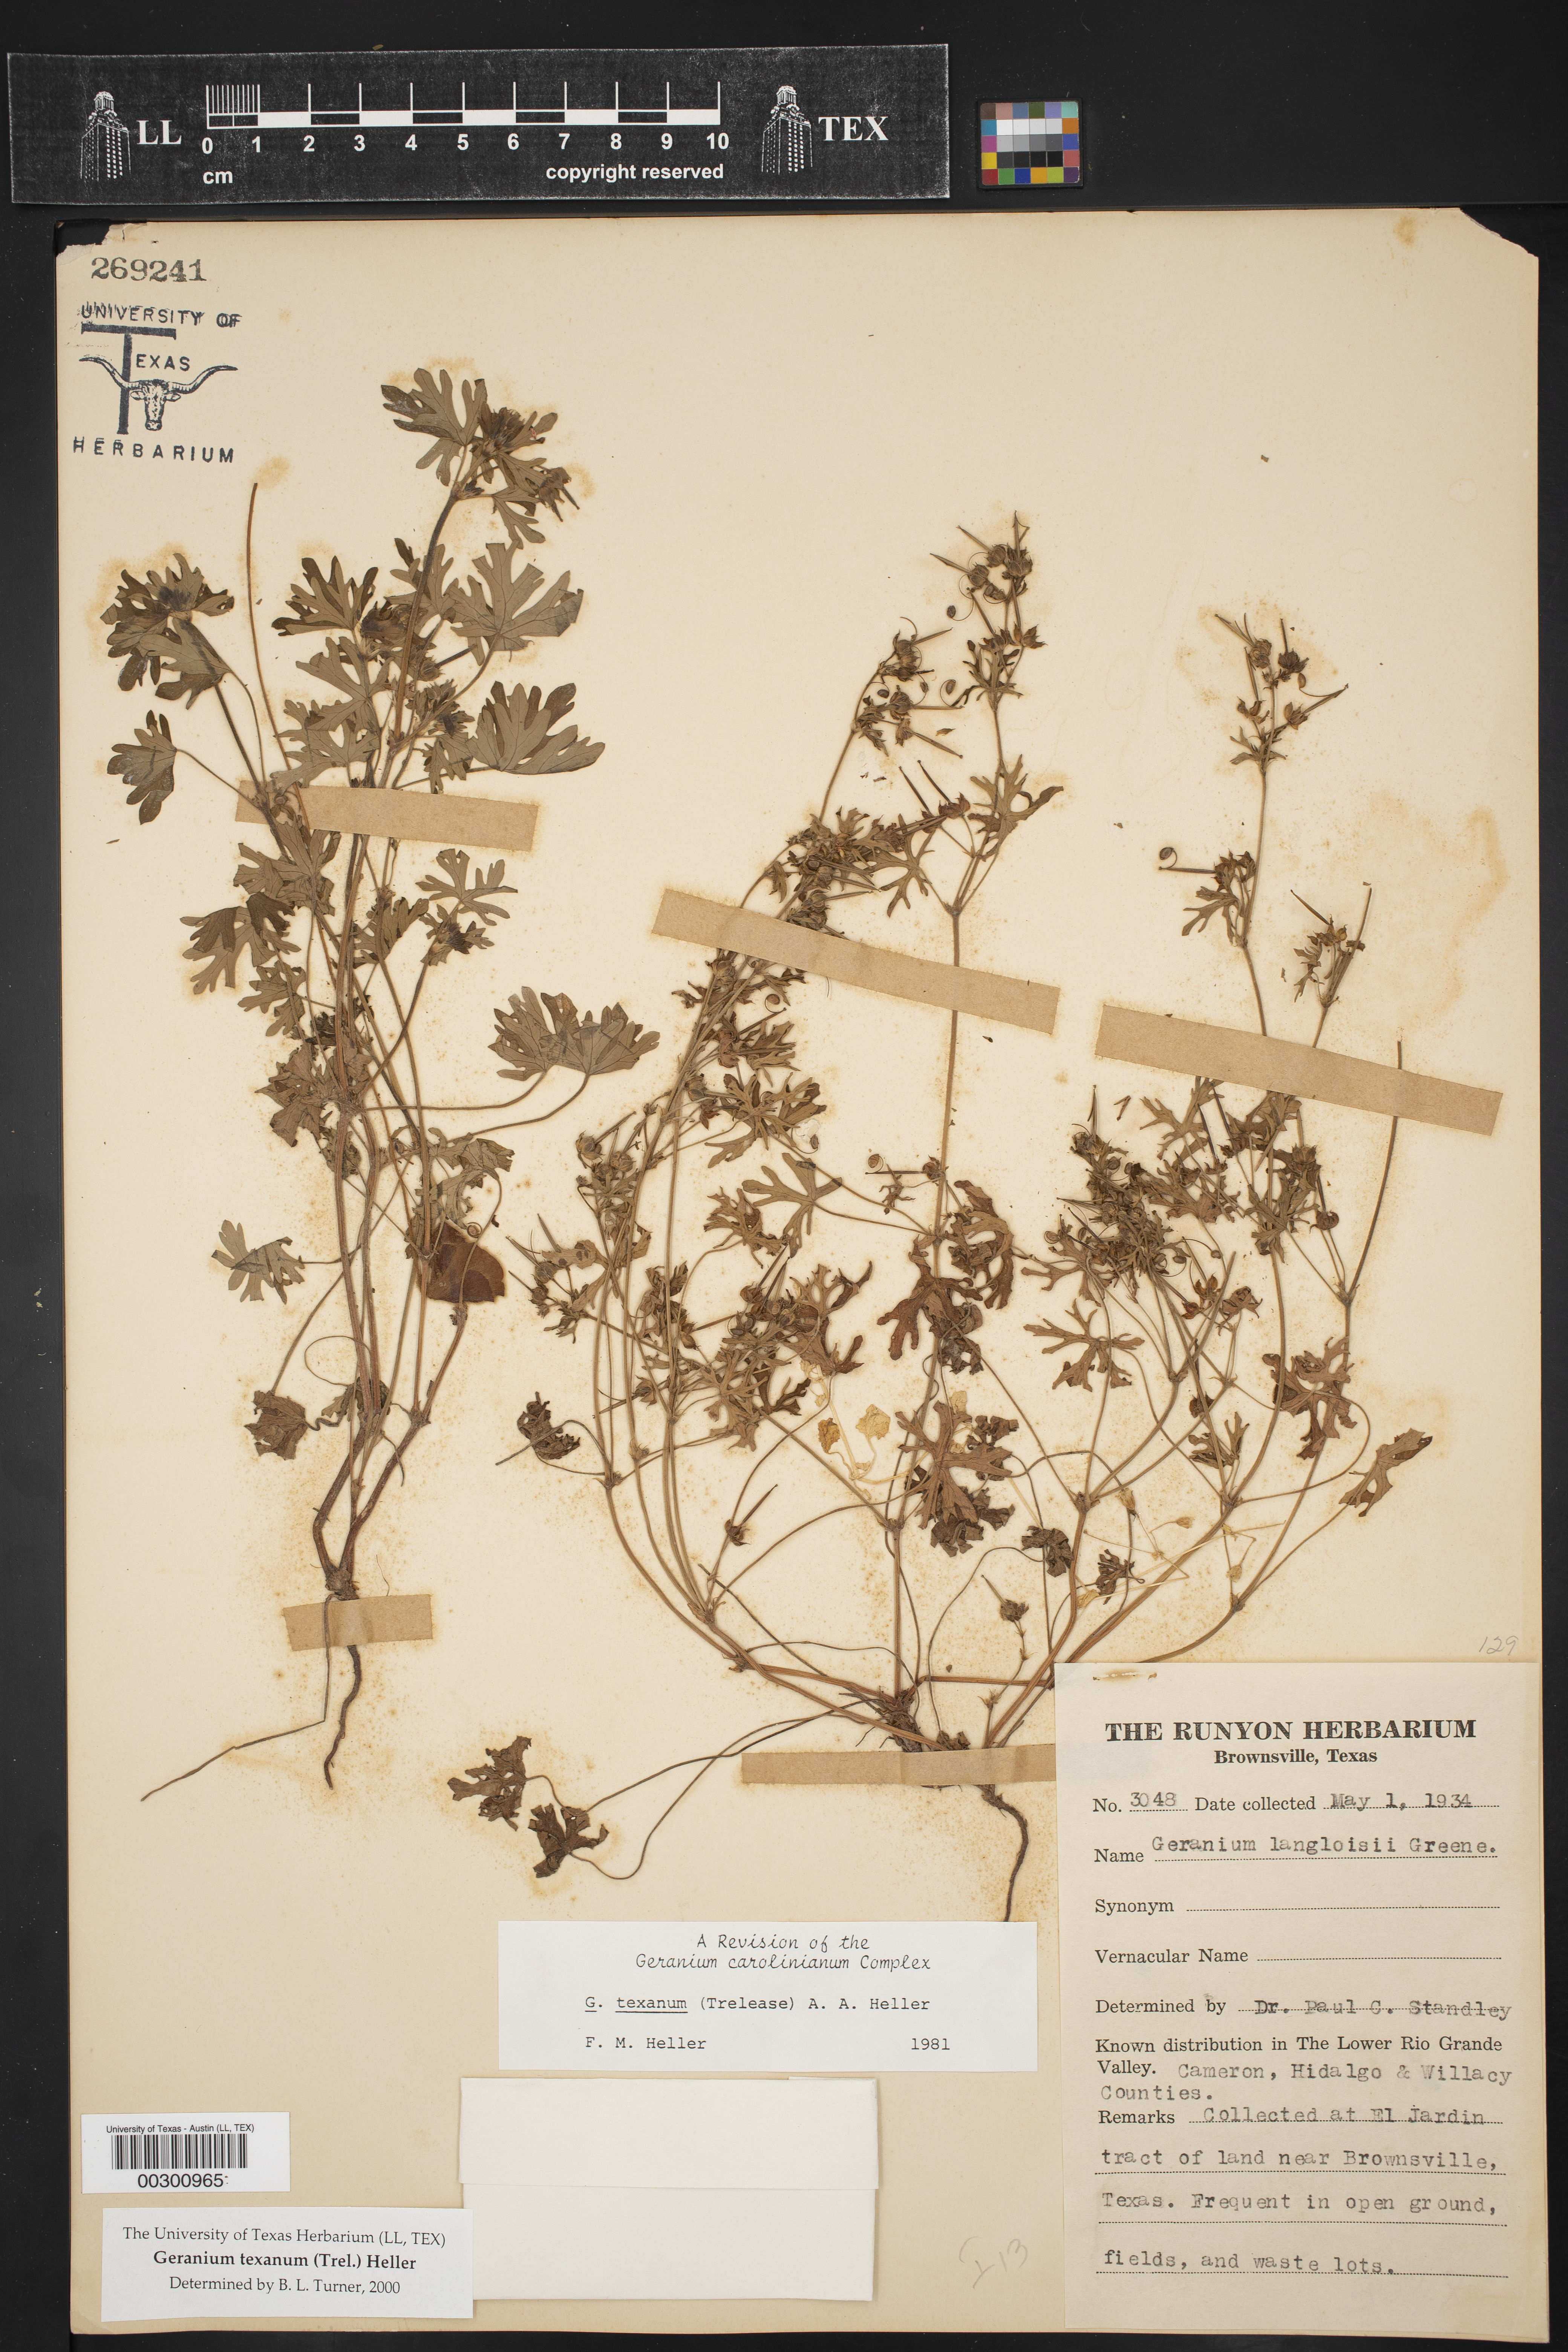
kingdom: Plantae
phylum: Tracheophyta
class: Magnoliopsida
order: Geraniales
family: Geraniaceae
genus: Geranium
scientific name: Geranium texanum
